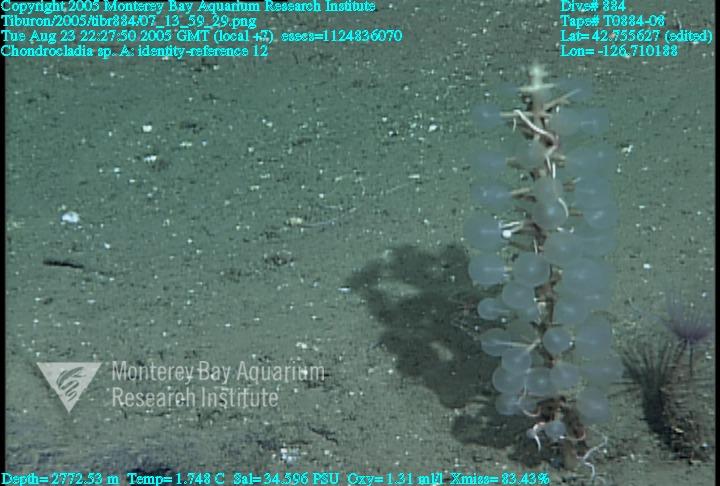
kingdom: Animalia
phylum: Porifera
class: Demospongiae
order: Poecilosclerida
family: Cladorhizidae
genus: Chondrocladia
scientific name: Chondrocladia
